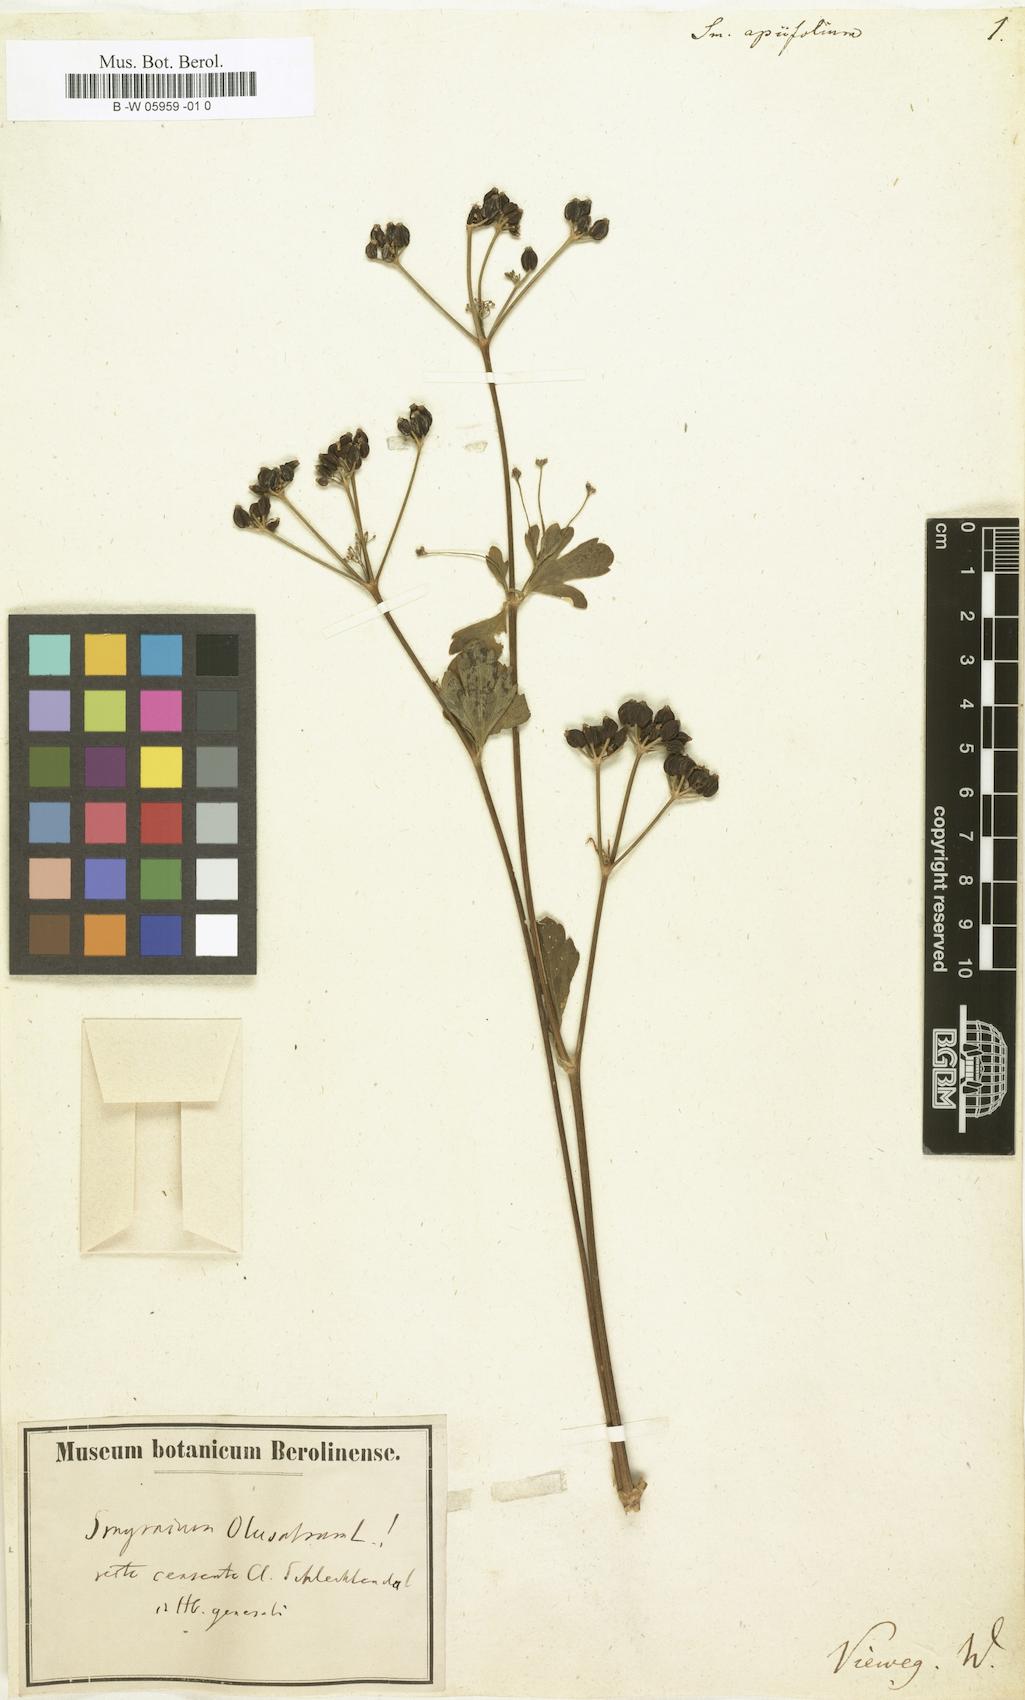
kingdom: Plantae
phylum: Tracheophyta
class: Magnoliopsida
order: Apiales
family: Apiaceae
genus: Smyrnium
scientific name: Smyrnium creticum
